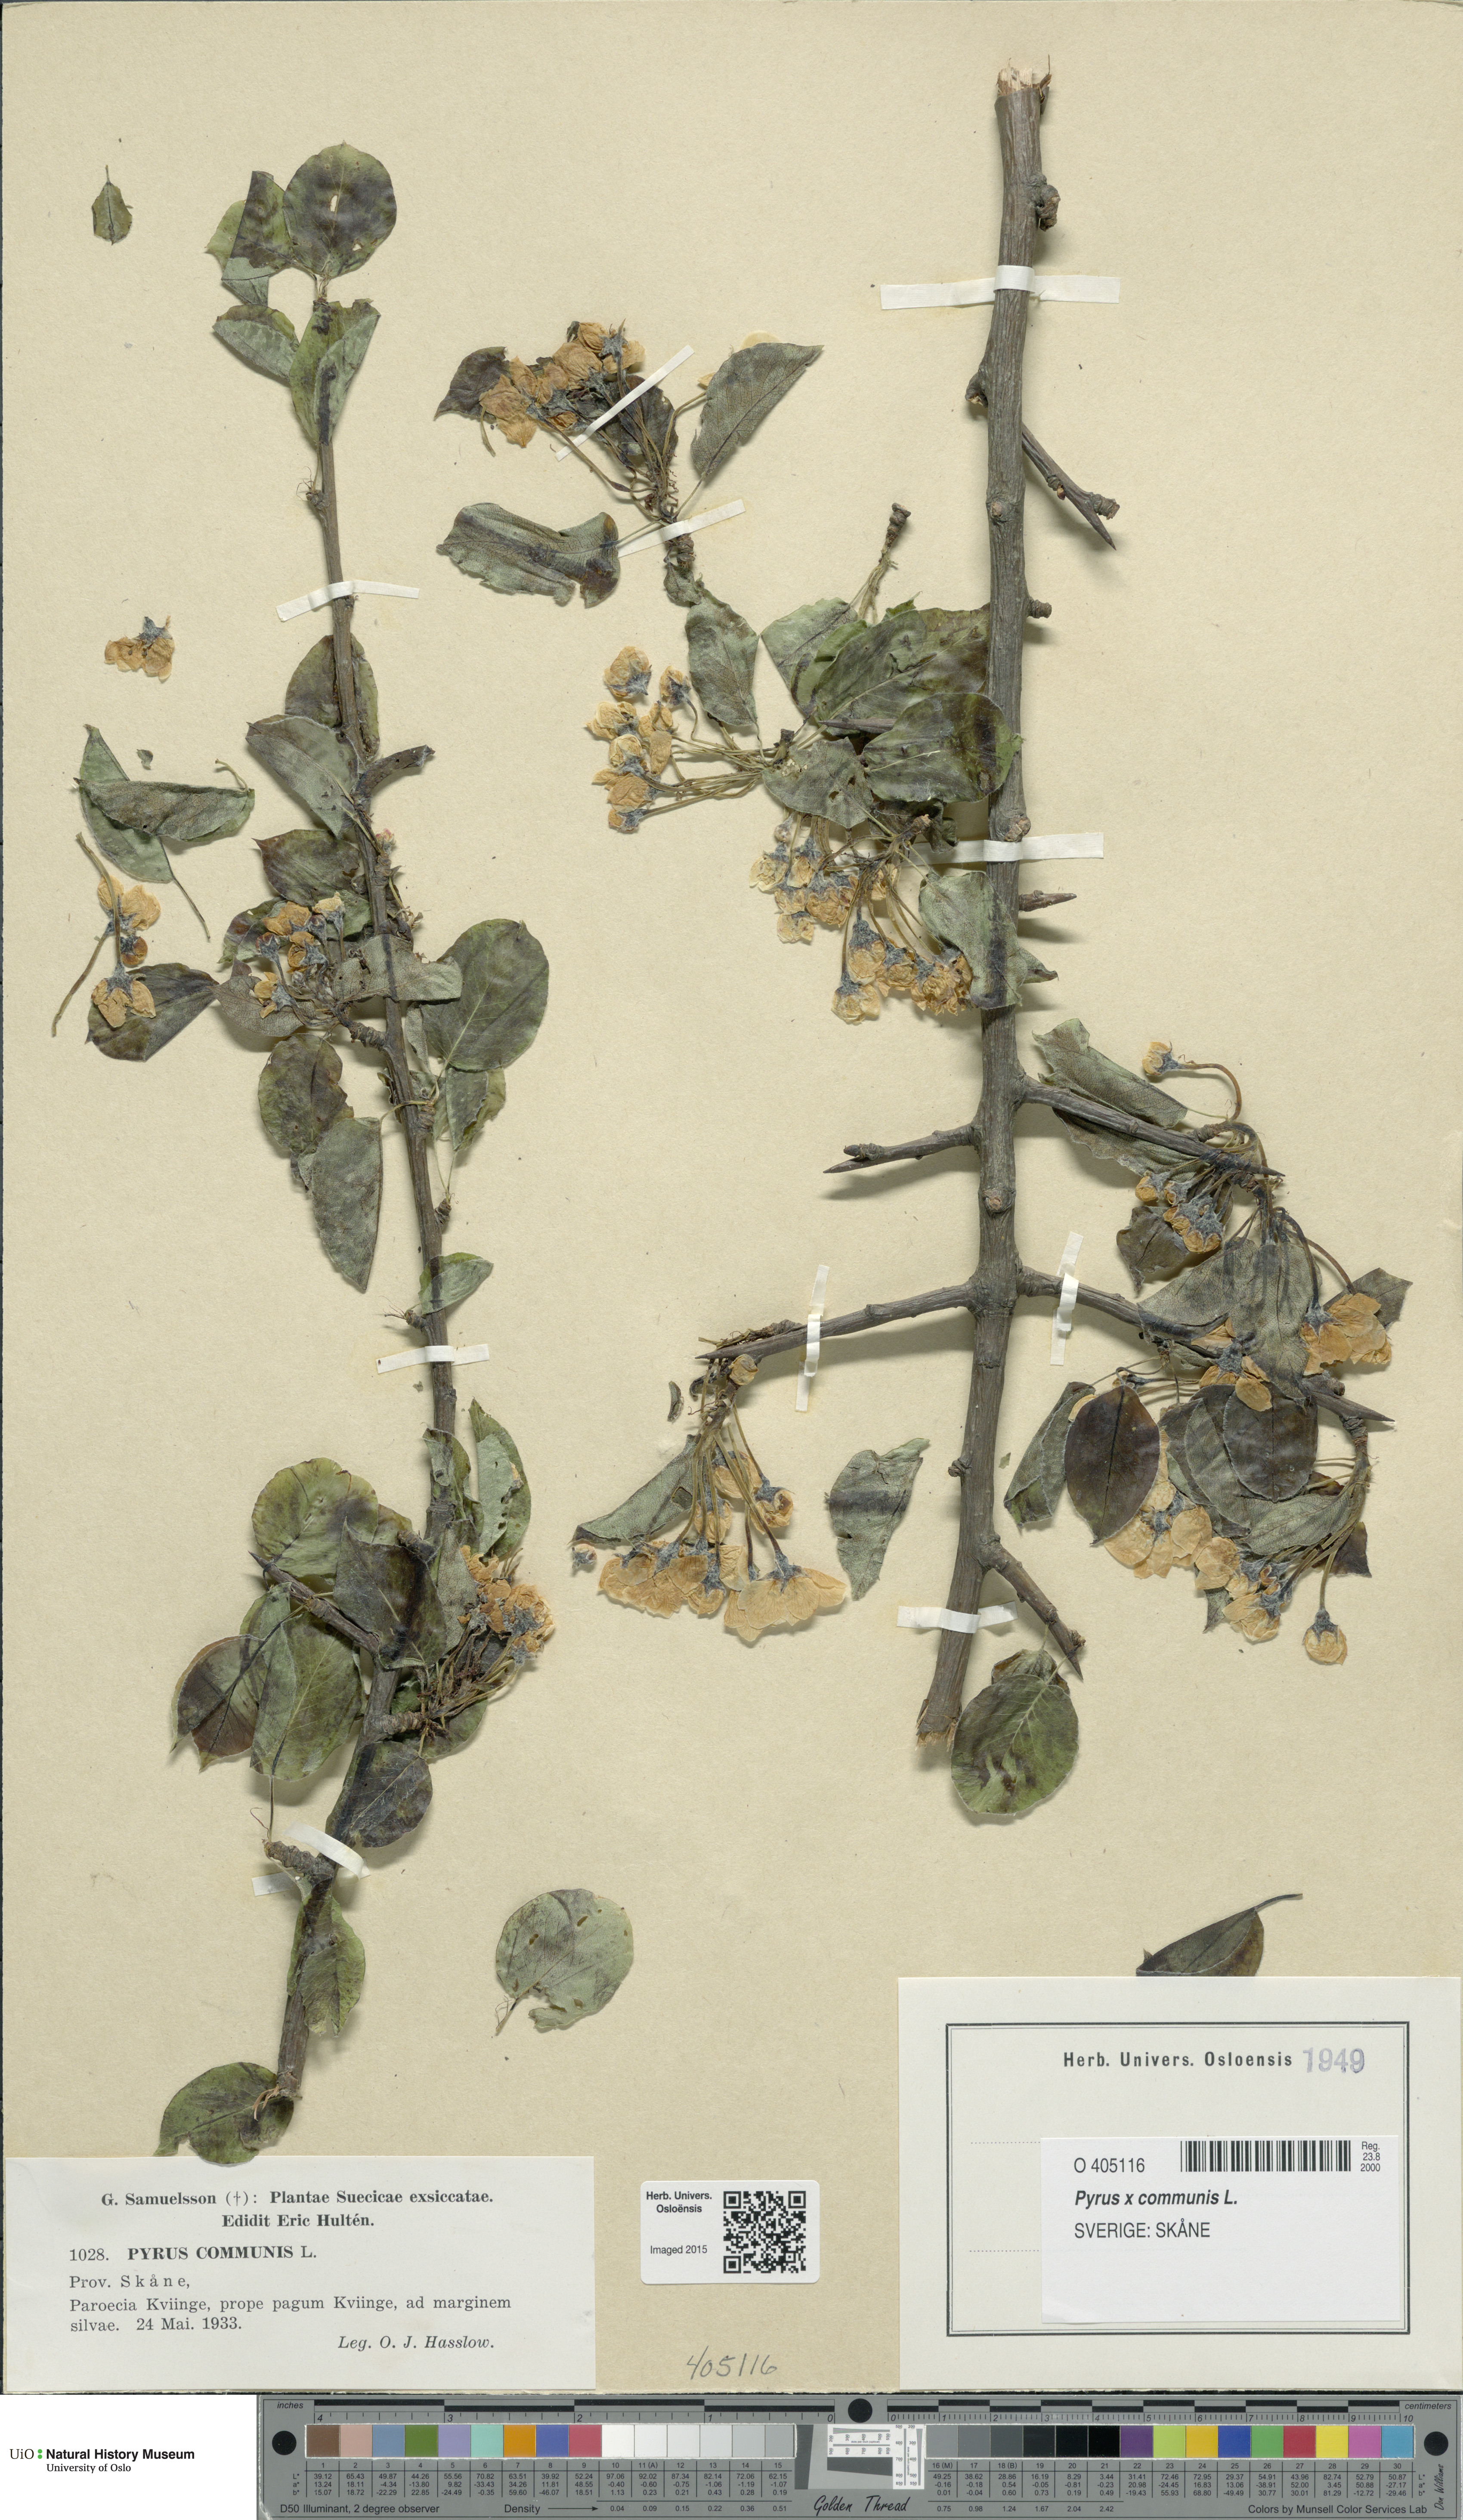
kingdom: Plantae
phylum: Tracheophyta
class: Magnoliopsida
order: Rosales
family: Rosaceae
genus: Pyrus
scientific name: Pyrus communis
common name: Pear
